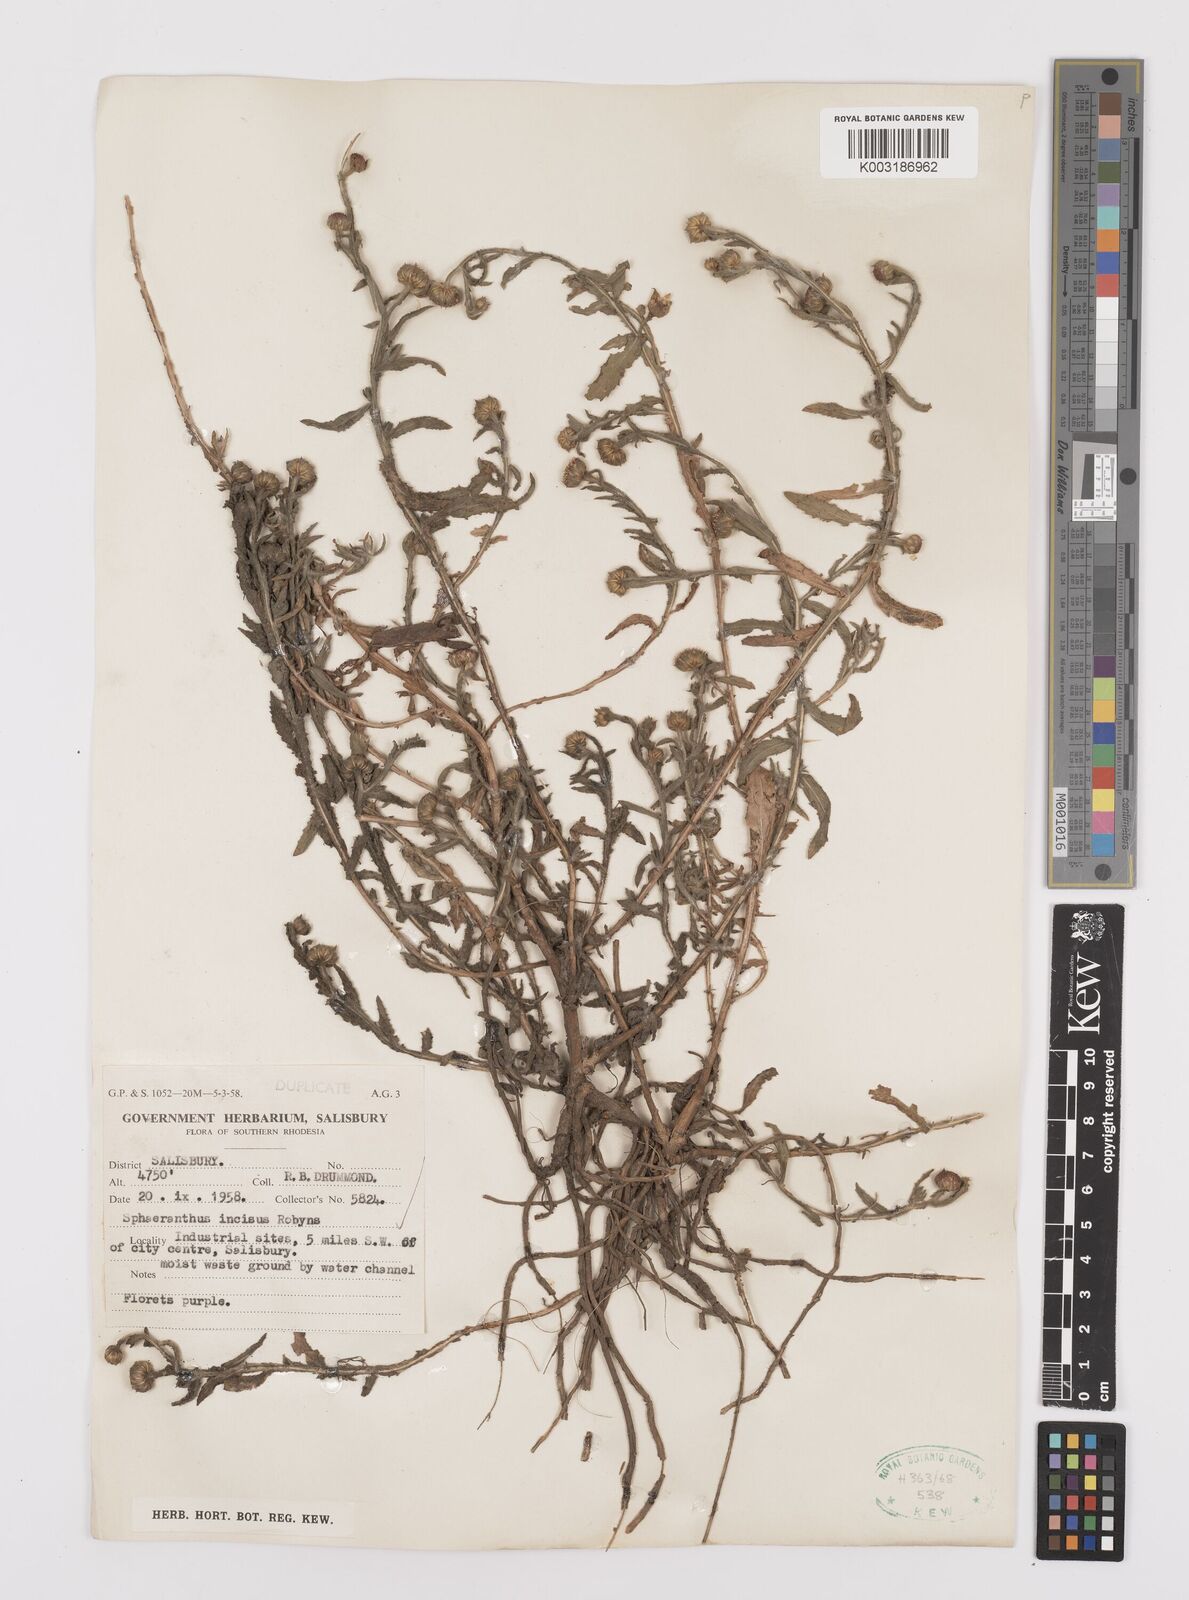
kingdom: Plantae
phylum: Tracheophyta
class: Magnoliopsida
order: Asterales
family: Asteraceae
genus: Sphaeranthus
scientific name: Sphaeranthus peduncularis
